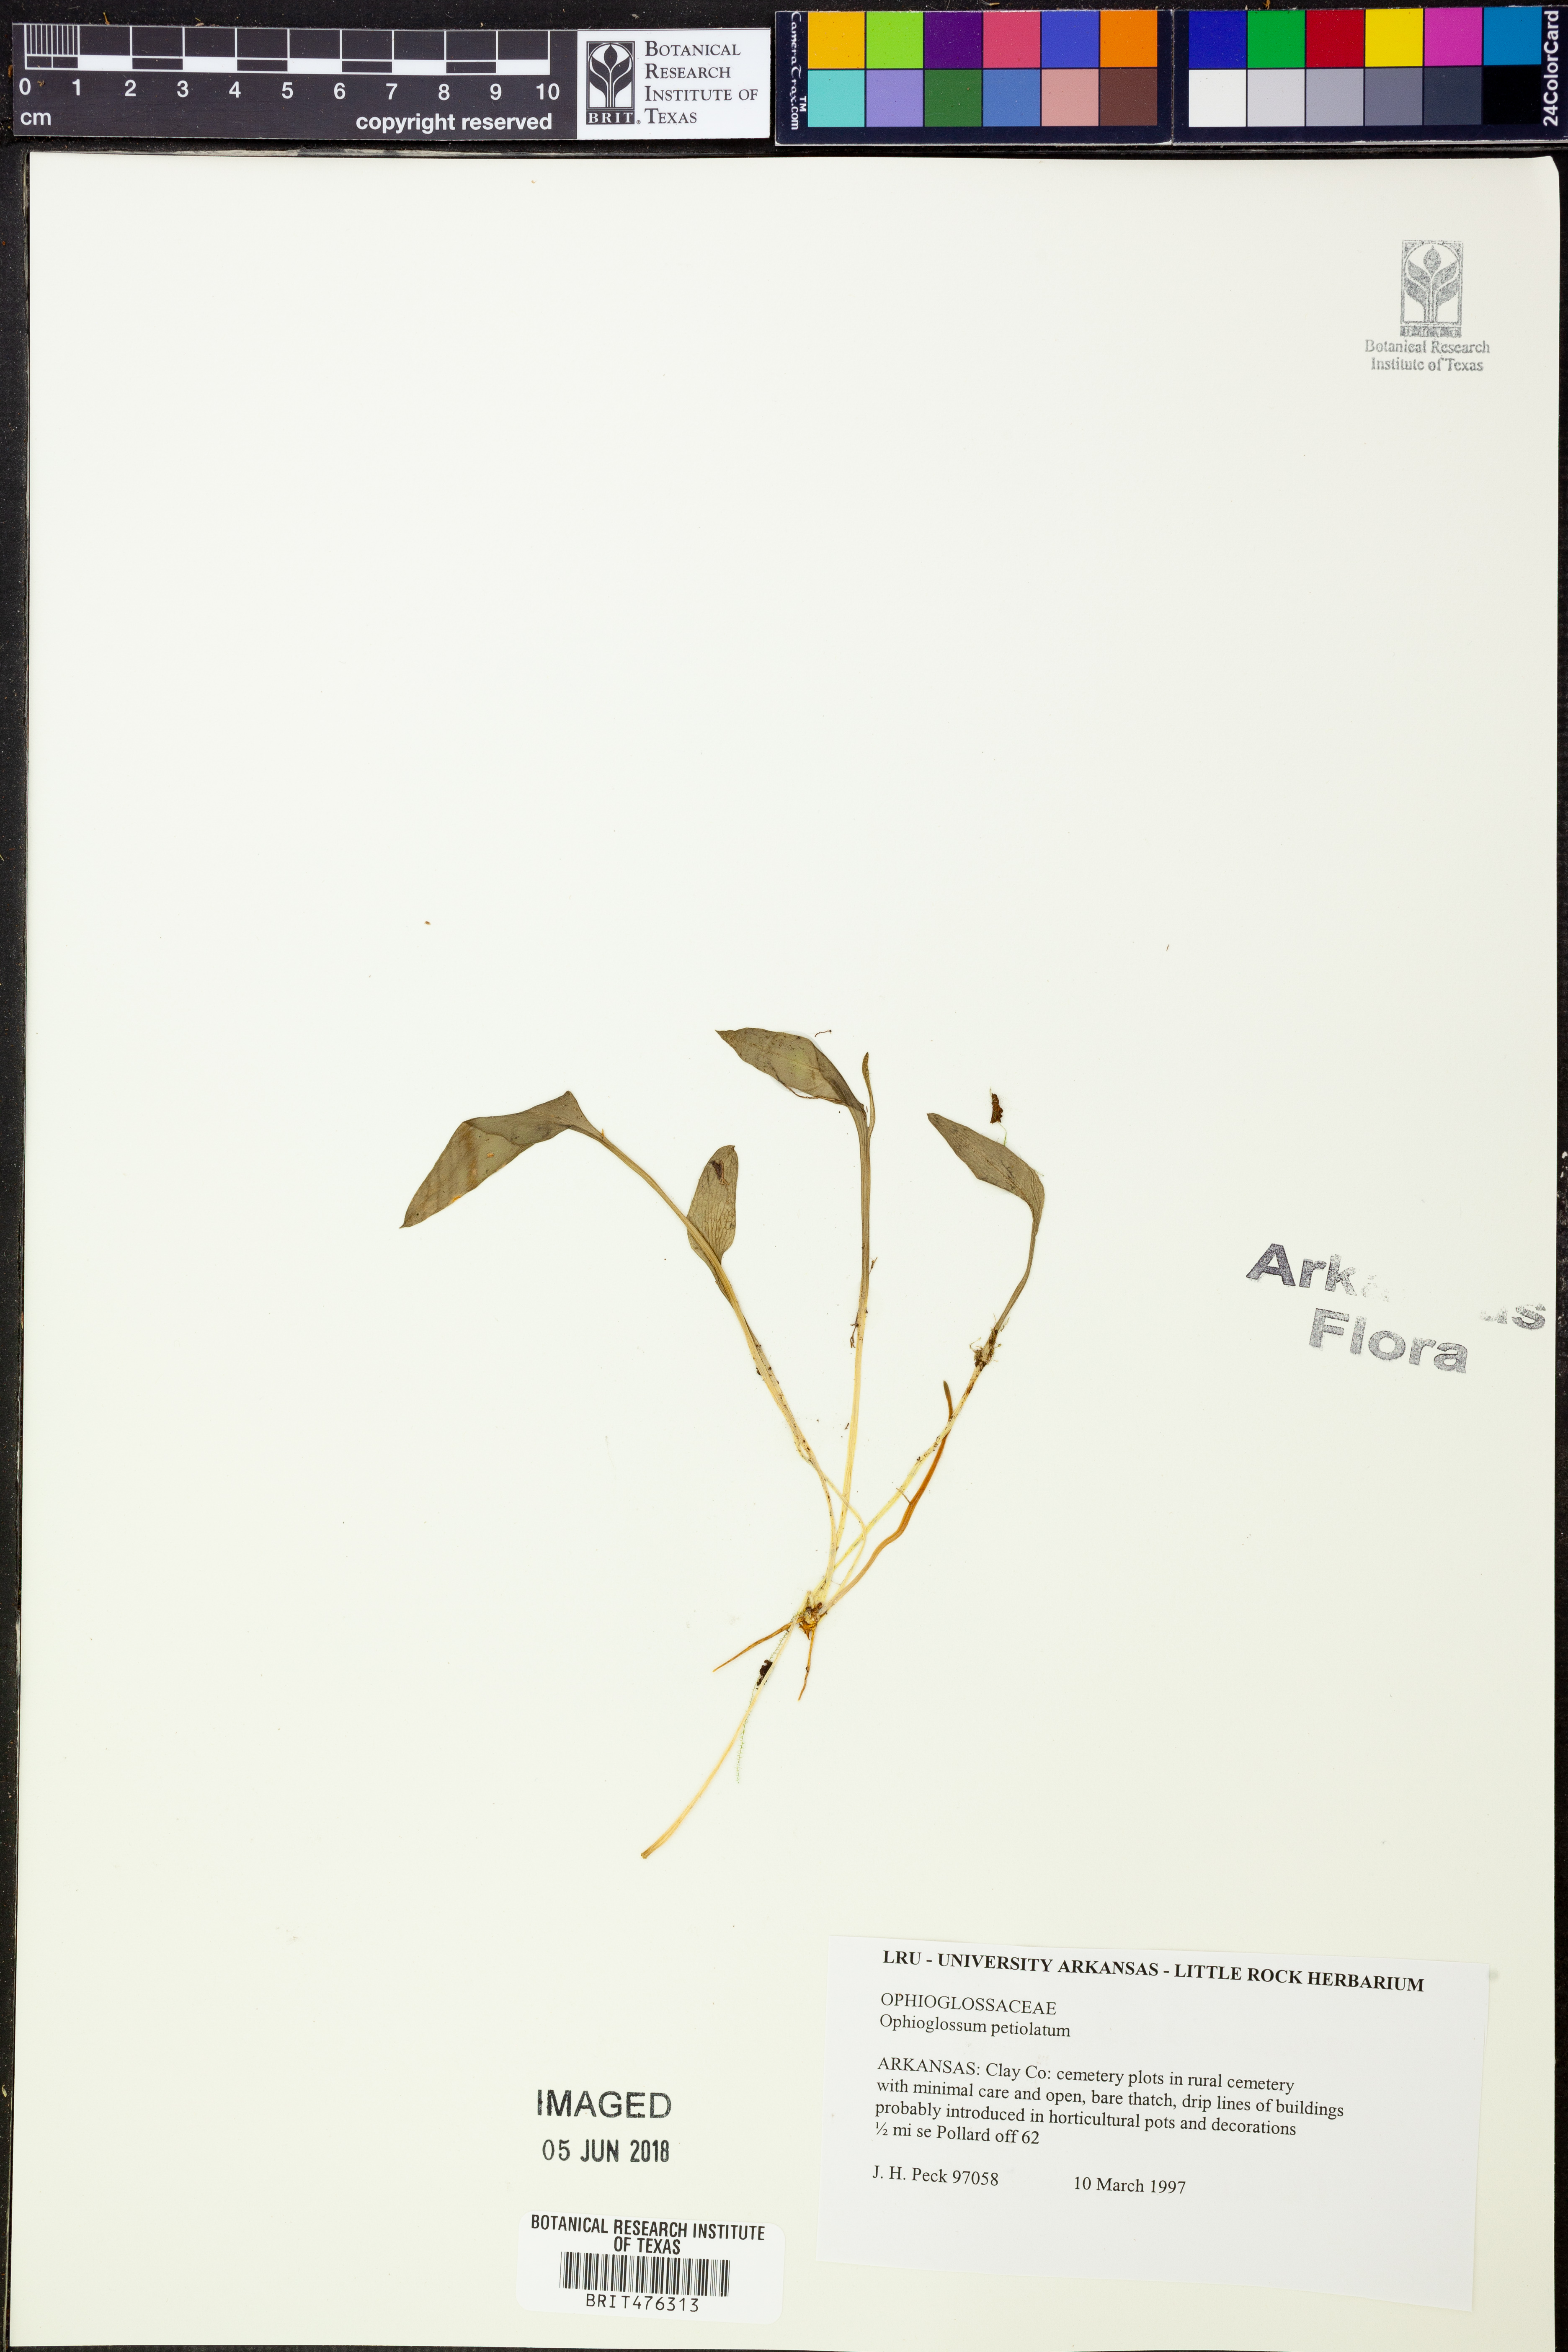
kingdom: Plantae
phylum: Tracheophyta
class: Polypodiopsida
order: Ophioglossales
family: Ophioglossaceae
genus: Ophioglossum
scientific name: Ophioglossum petiolatum
